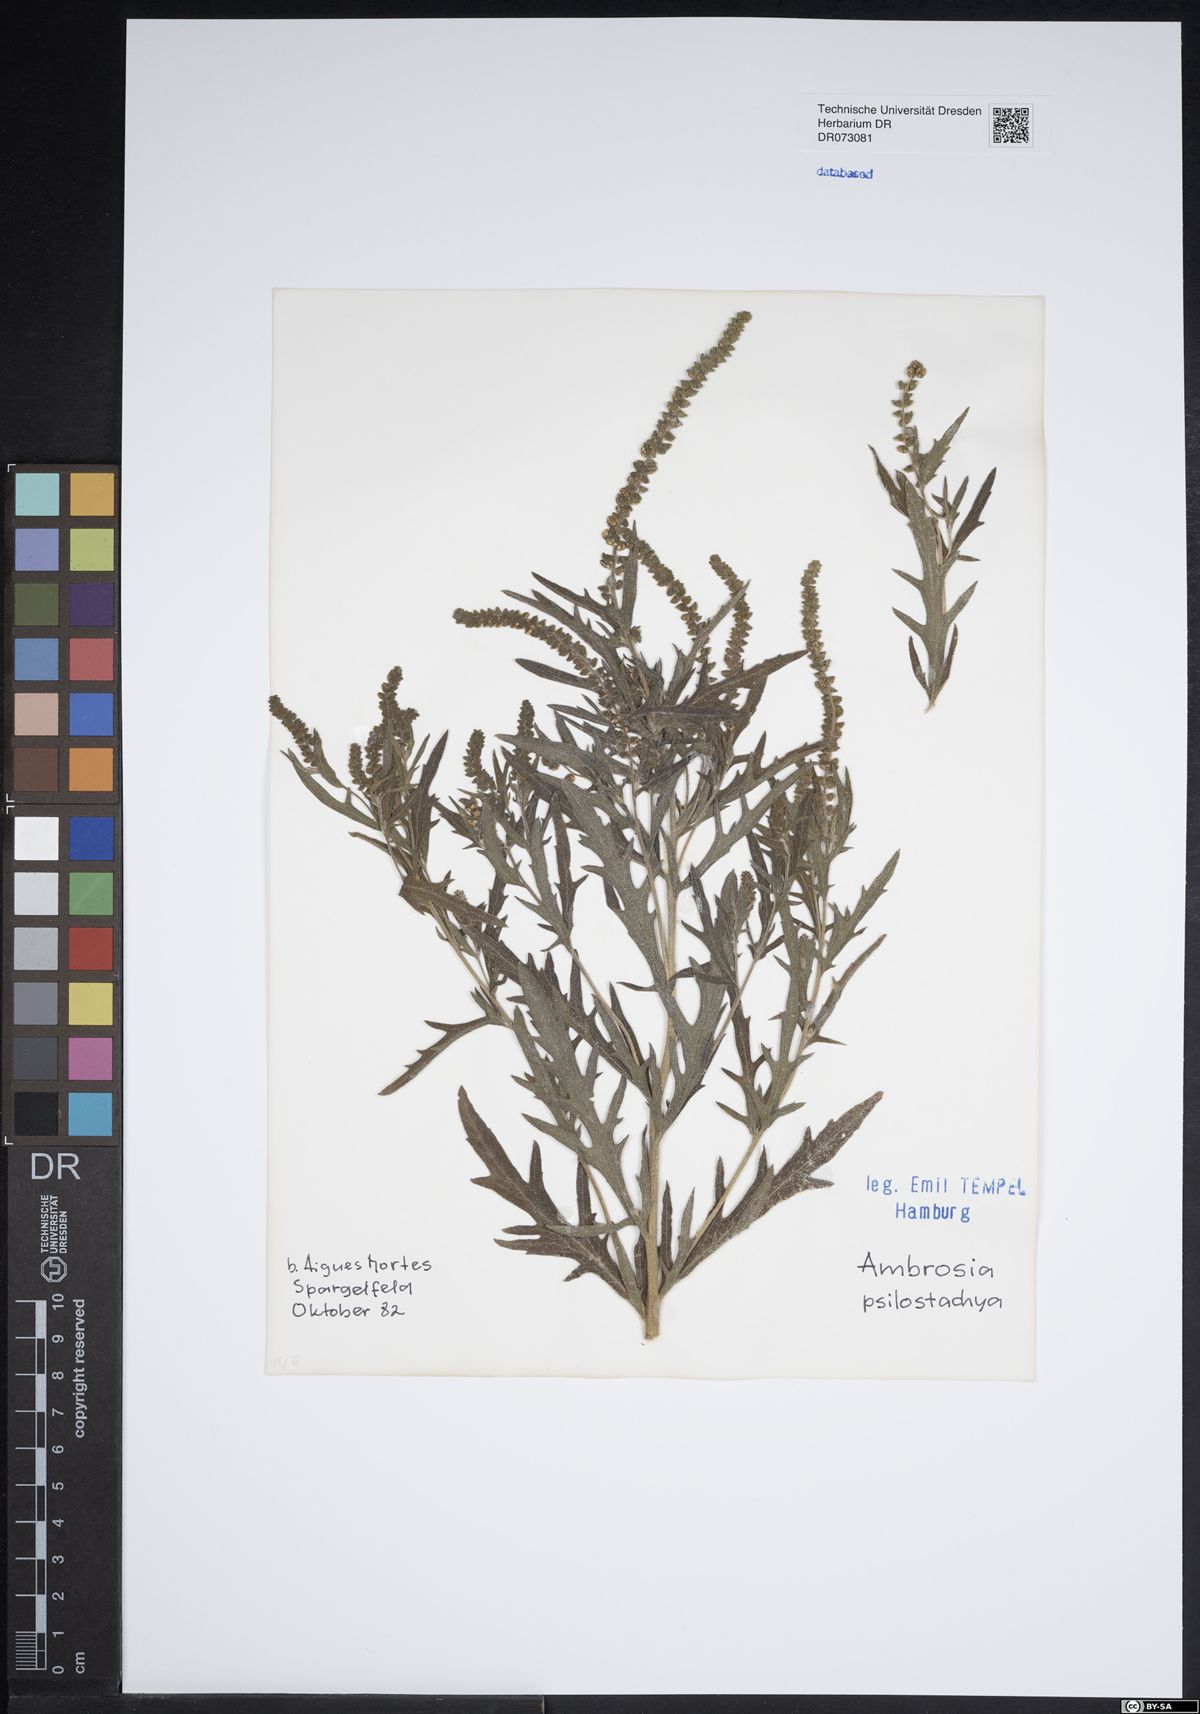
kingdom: Plantae
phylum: Tracheophyta
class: Magnoliopsida
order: Asterales
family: Asteraceae
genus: Calendula
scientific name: Calendula arvensis
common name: Field marigold
